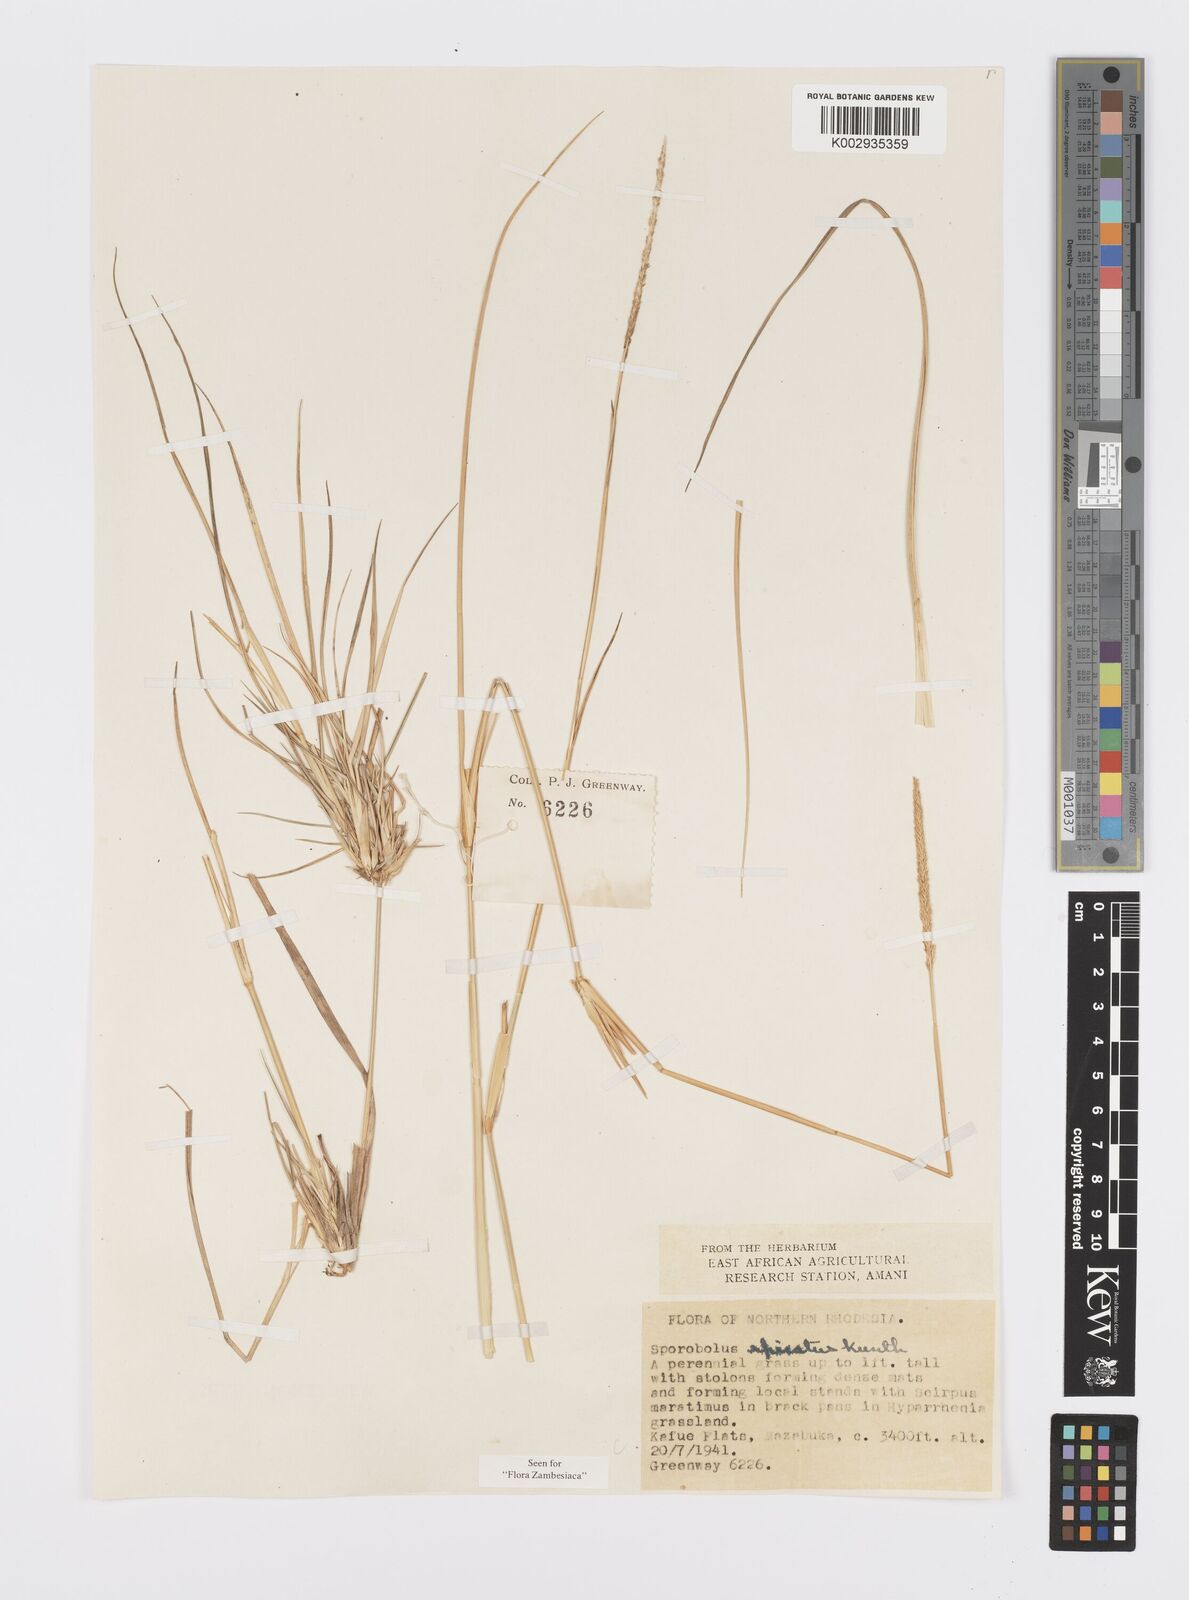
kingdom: Plantae
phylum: Tracheophyta
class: Liliopsida
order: Poales
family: Poaceae
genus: Sporobolus
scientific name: Sporobolus spicatus
